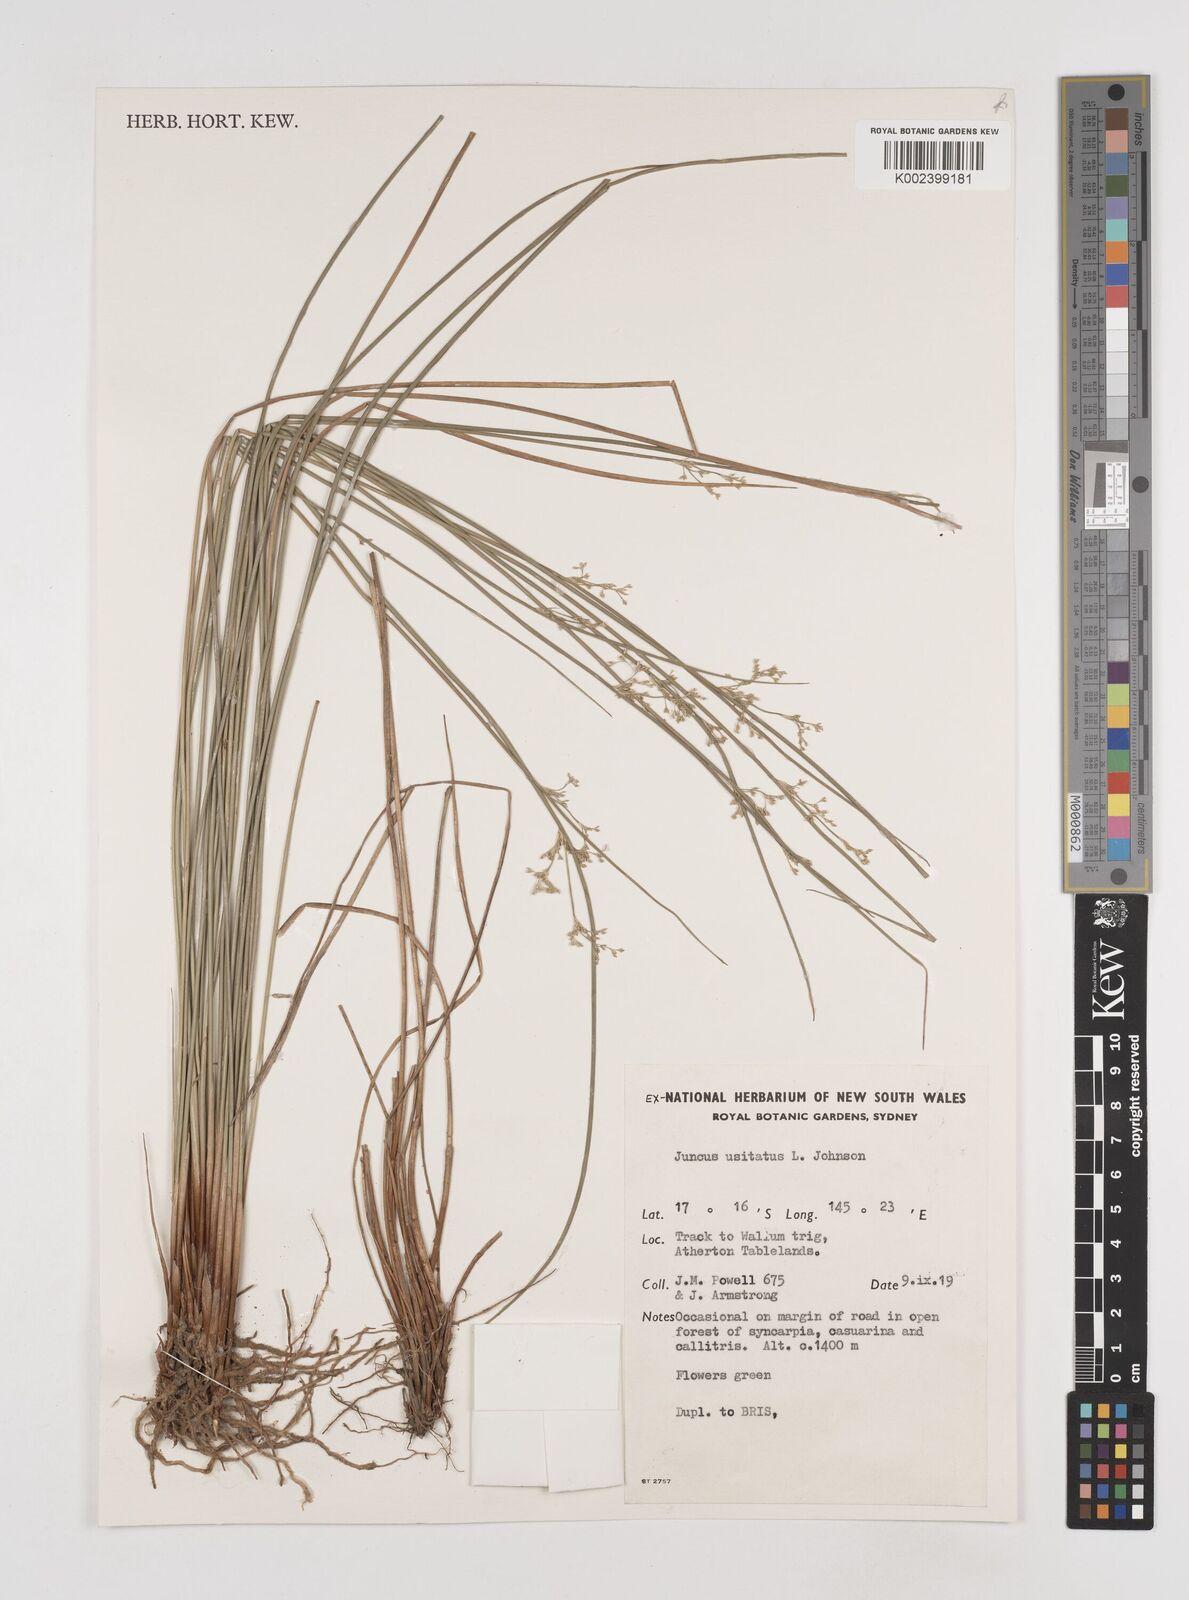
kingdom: Plantae
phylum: Tracheophyta
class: Liliopsida
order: Poales
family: Juncaceae
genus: Juncus
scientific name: Juncus usitatus
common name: Rush
